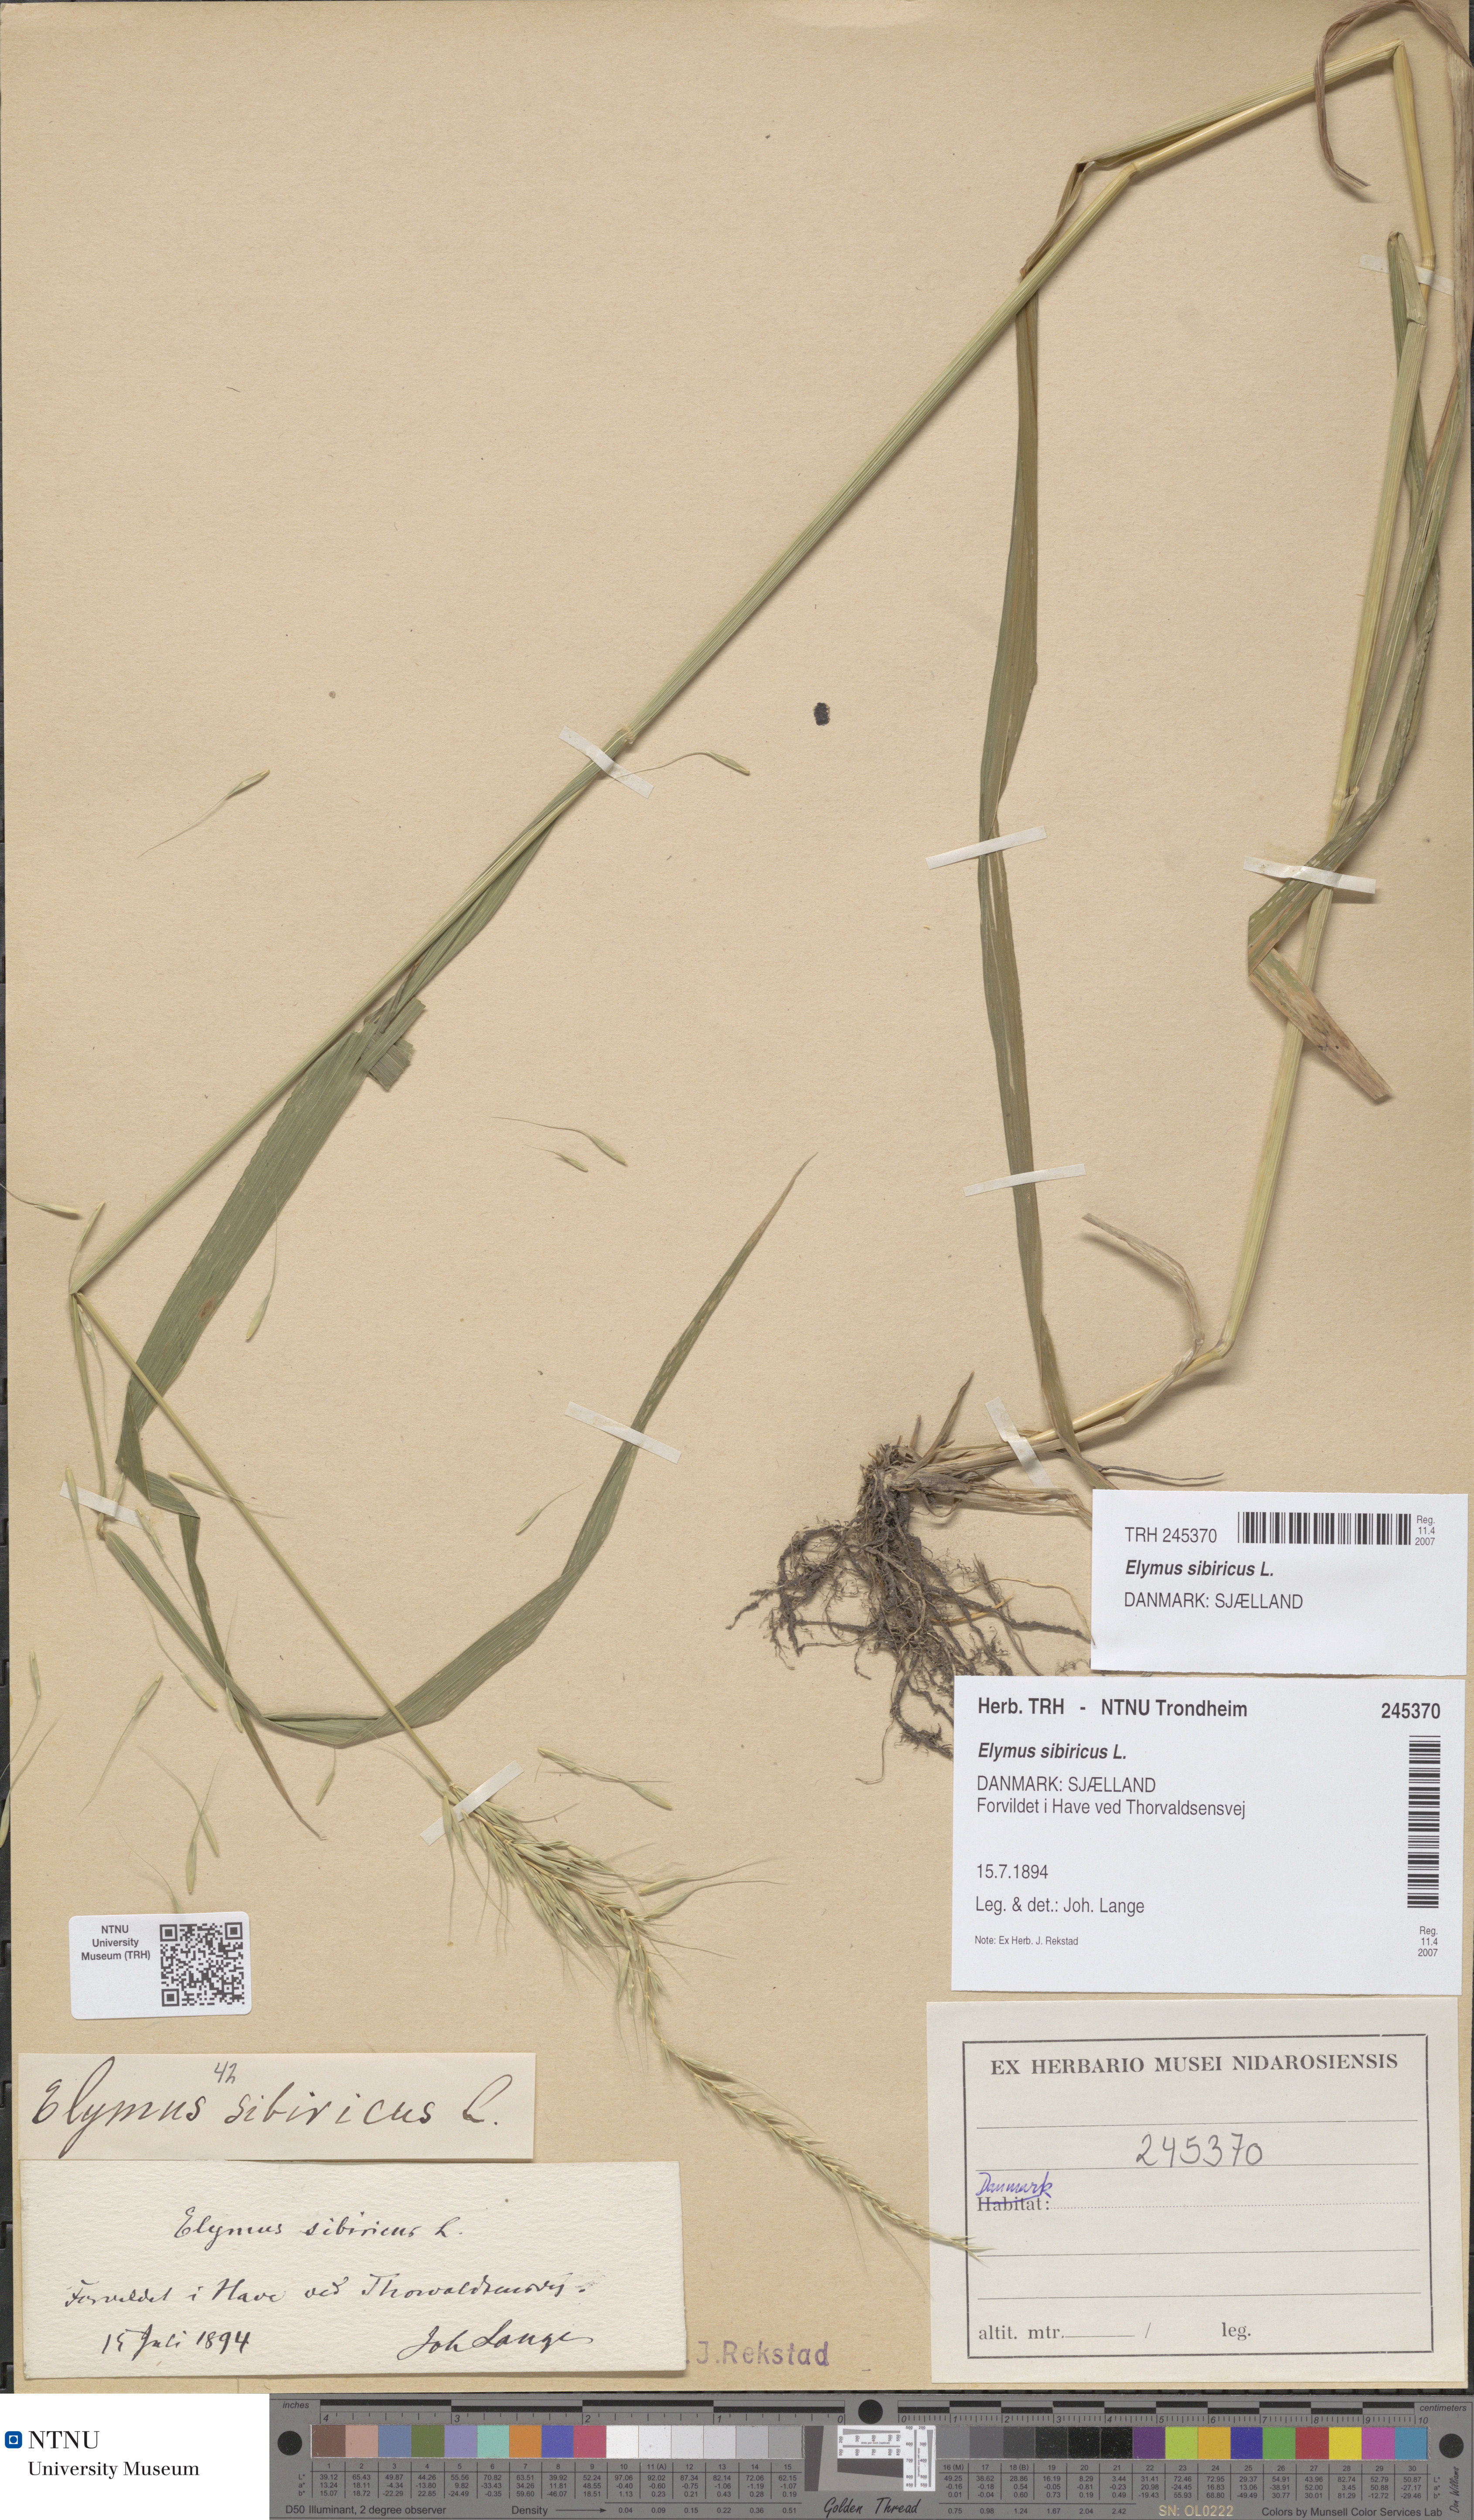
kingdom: Plantae
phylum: Tracheophyta
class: Liliopsida
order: Poales
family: Poaceae
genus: Elymus
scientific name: Elymus sibiricus
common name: Siberian wildrye
